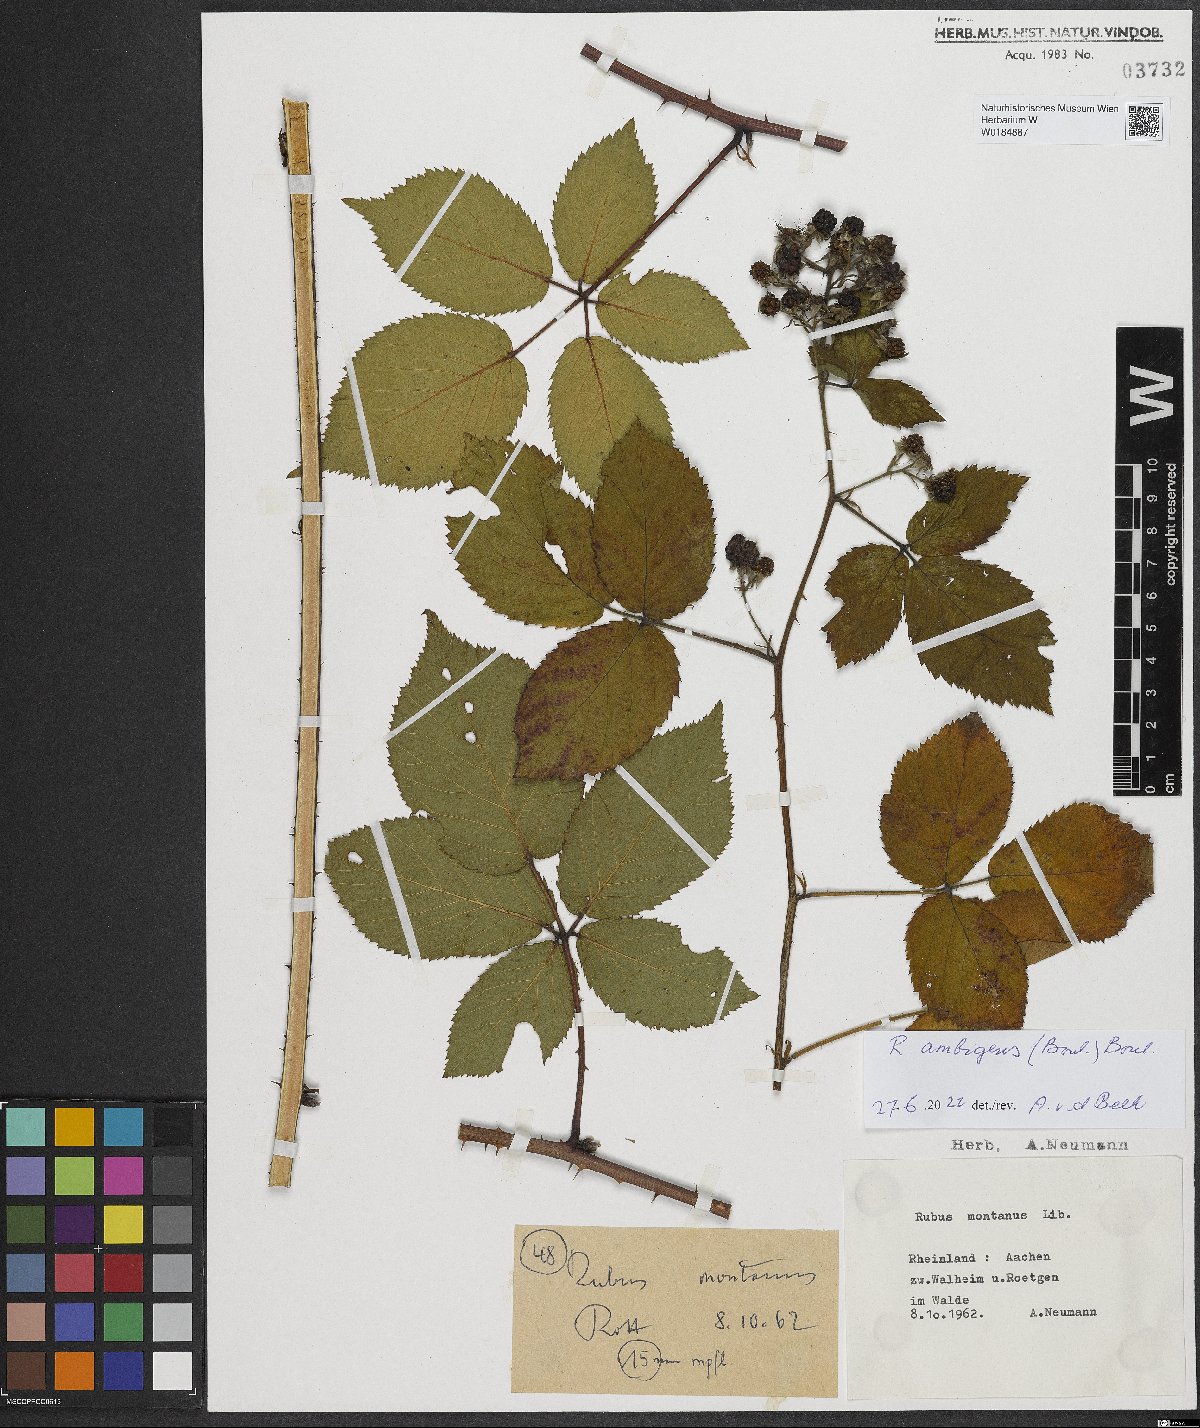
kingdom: Plantae
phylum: Tracheophyta
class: Magnoliopsida
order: Rosales
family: Rosaceae
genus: Rubus
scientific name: Rubus ambigens
